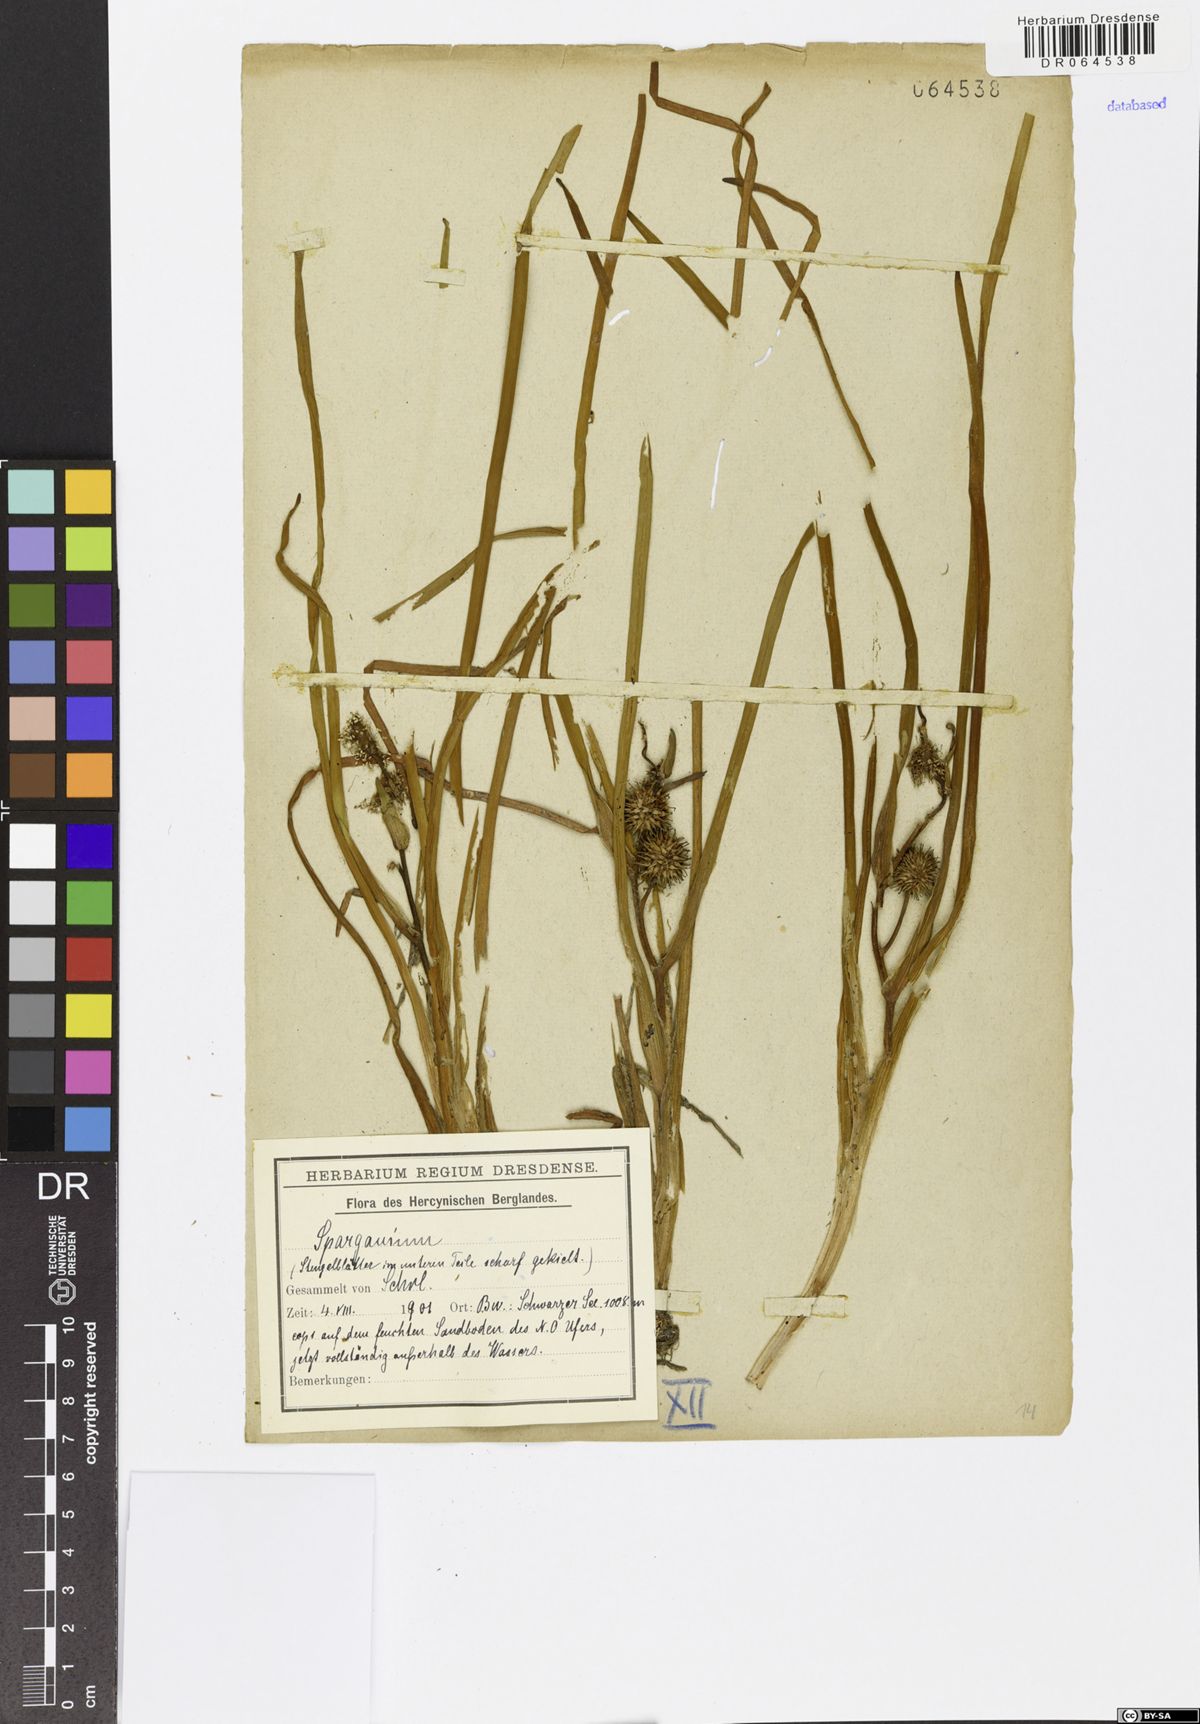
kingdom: Plantae
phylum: Tracheophyta
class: Liliopsida
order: Poales
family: Typhaceae
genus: Sparganium
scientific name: Sparganium
